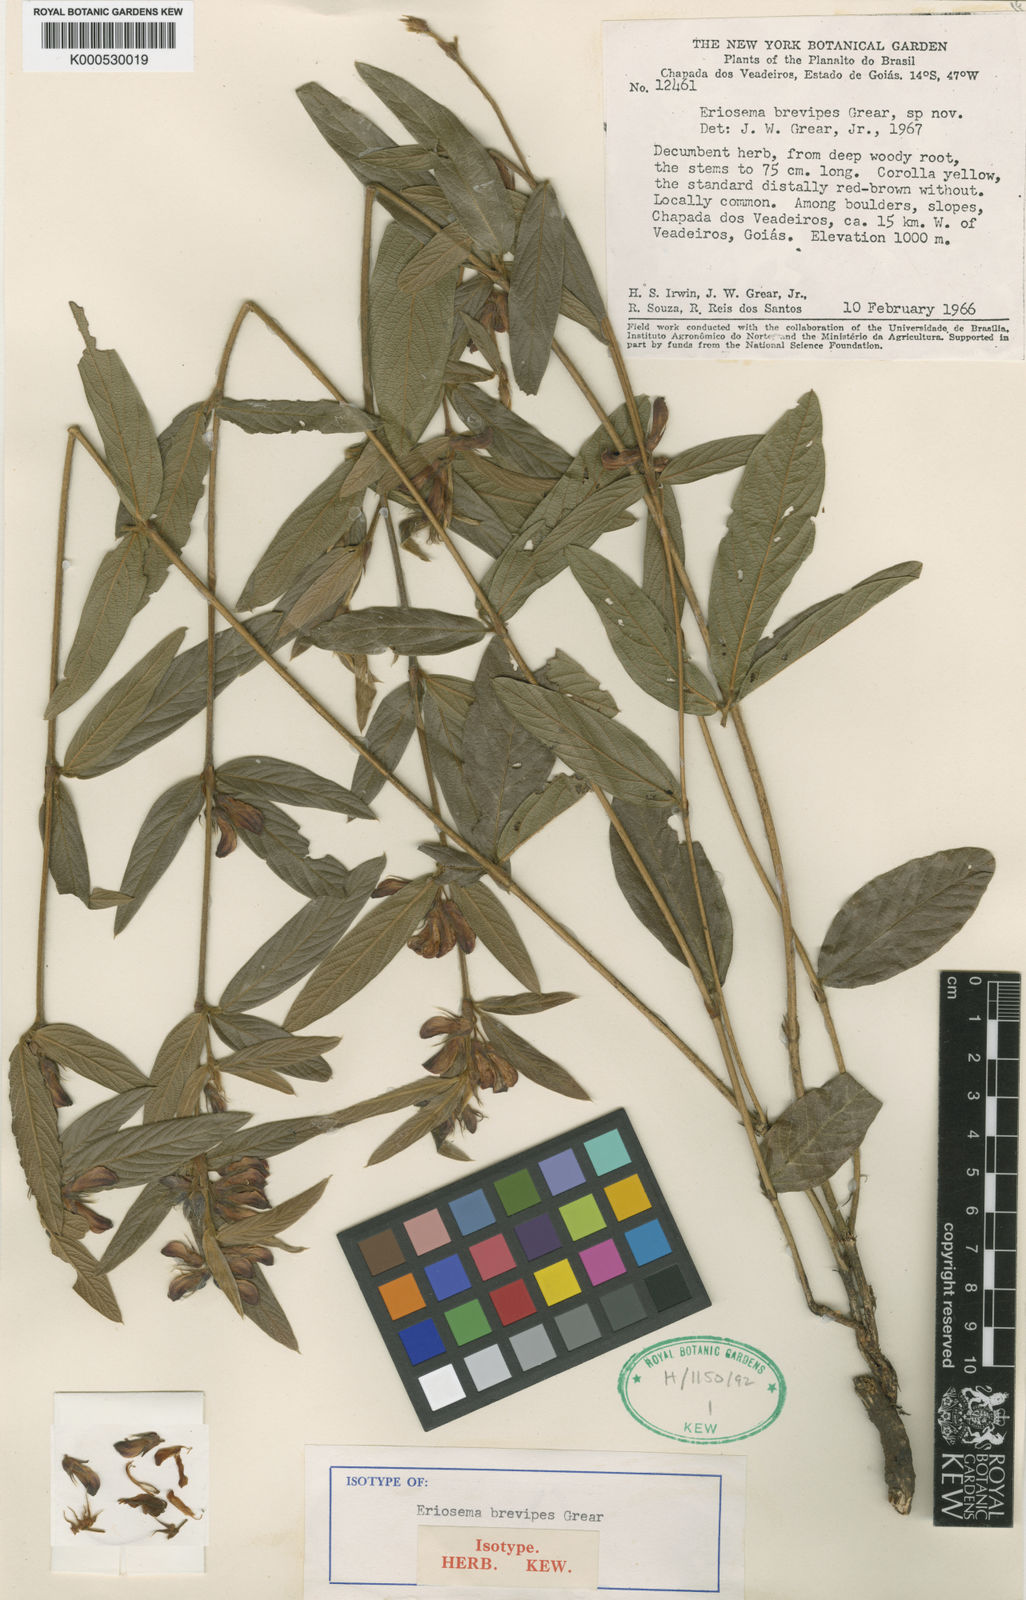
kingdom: Plantae
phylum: Tracheophyta
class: Magnoliopsida
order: Fabales
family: Fabaceae
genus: Eriosema
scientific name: Eriosema brevipes
